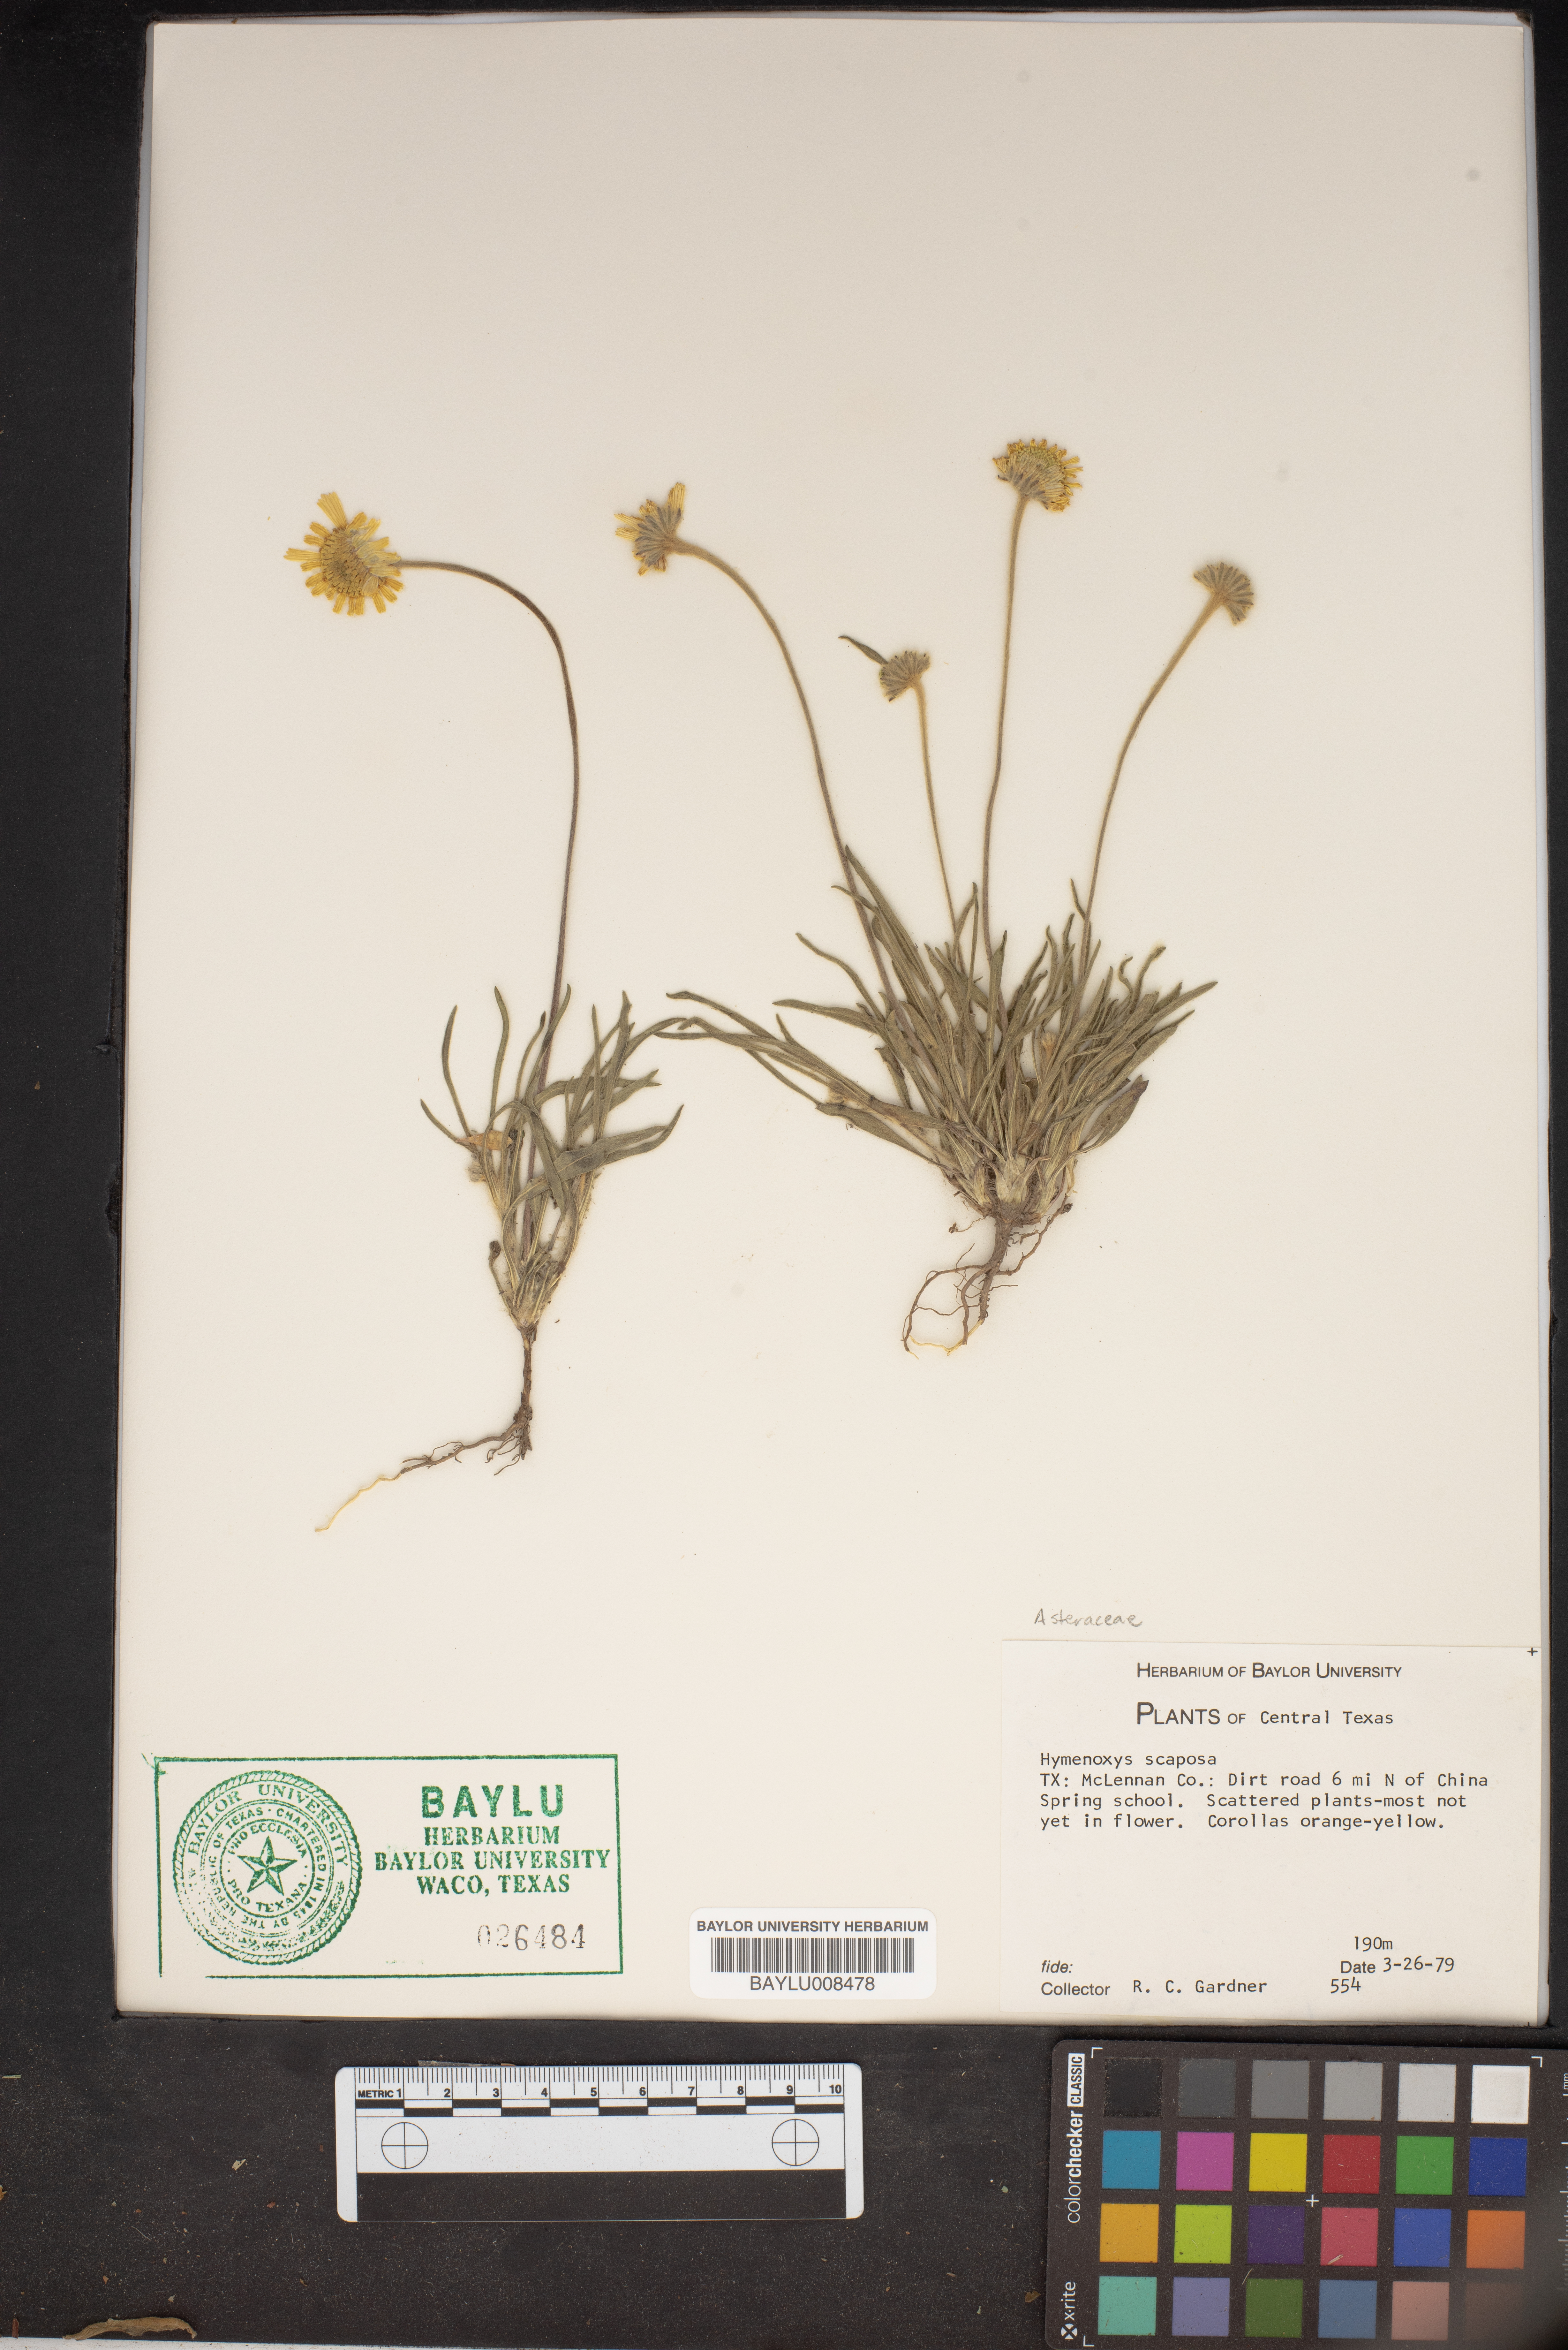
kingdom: Plantae
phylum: Tracheophyta
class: Magnoliopsida
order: Asterales
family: Asteraceae
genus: Tetraneuris
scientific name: Tetraneuris scaposa
